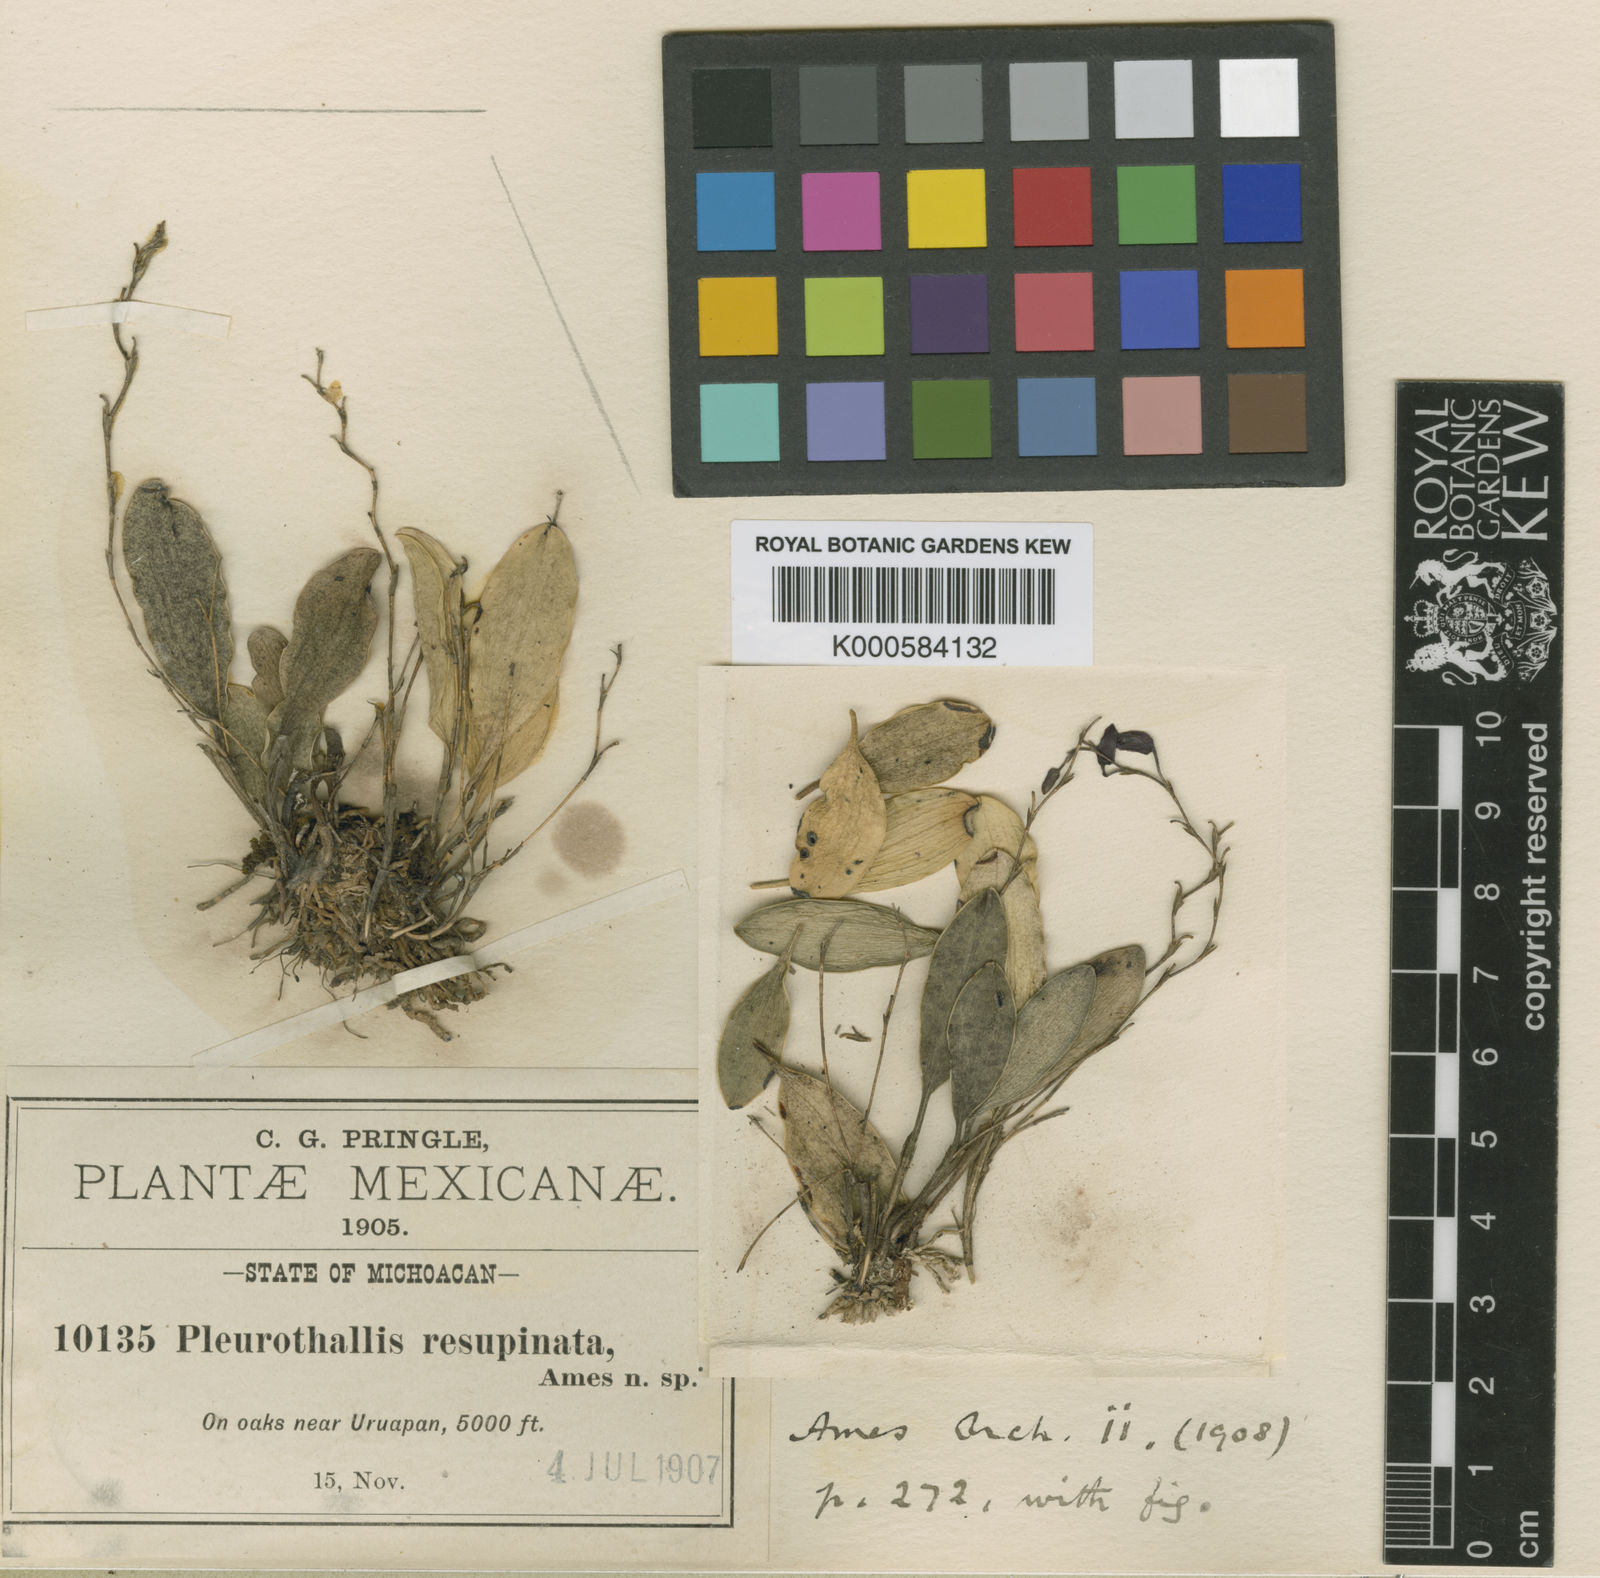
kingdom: Plantae
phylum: Tracheophyta
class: Liliopsida
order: Asparagales
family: Orchidaceae
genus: Stelis
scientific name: Stelis resupinata
